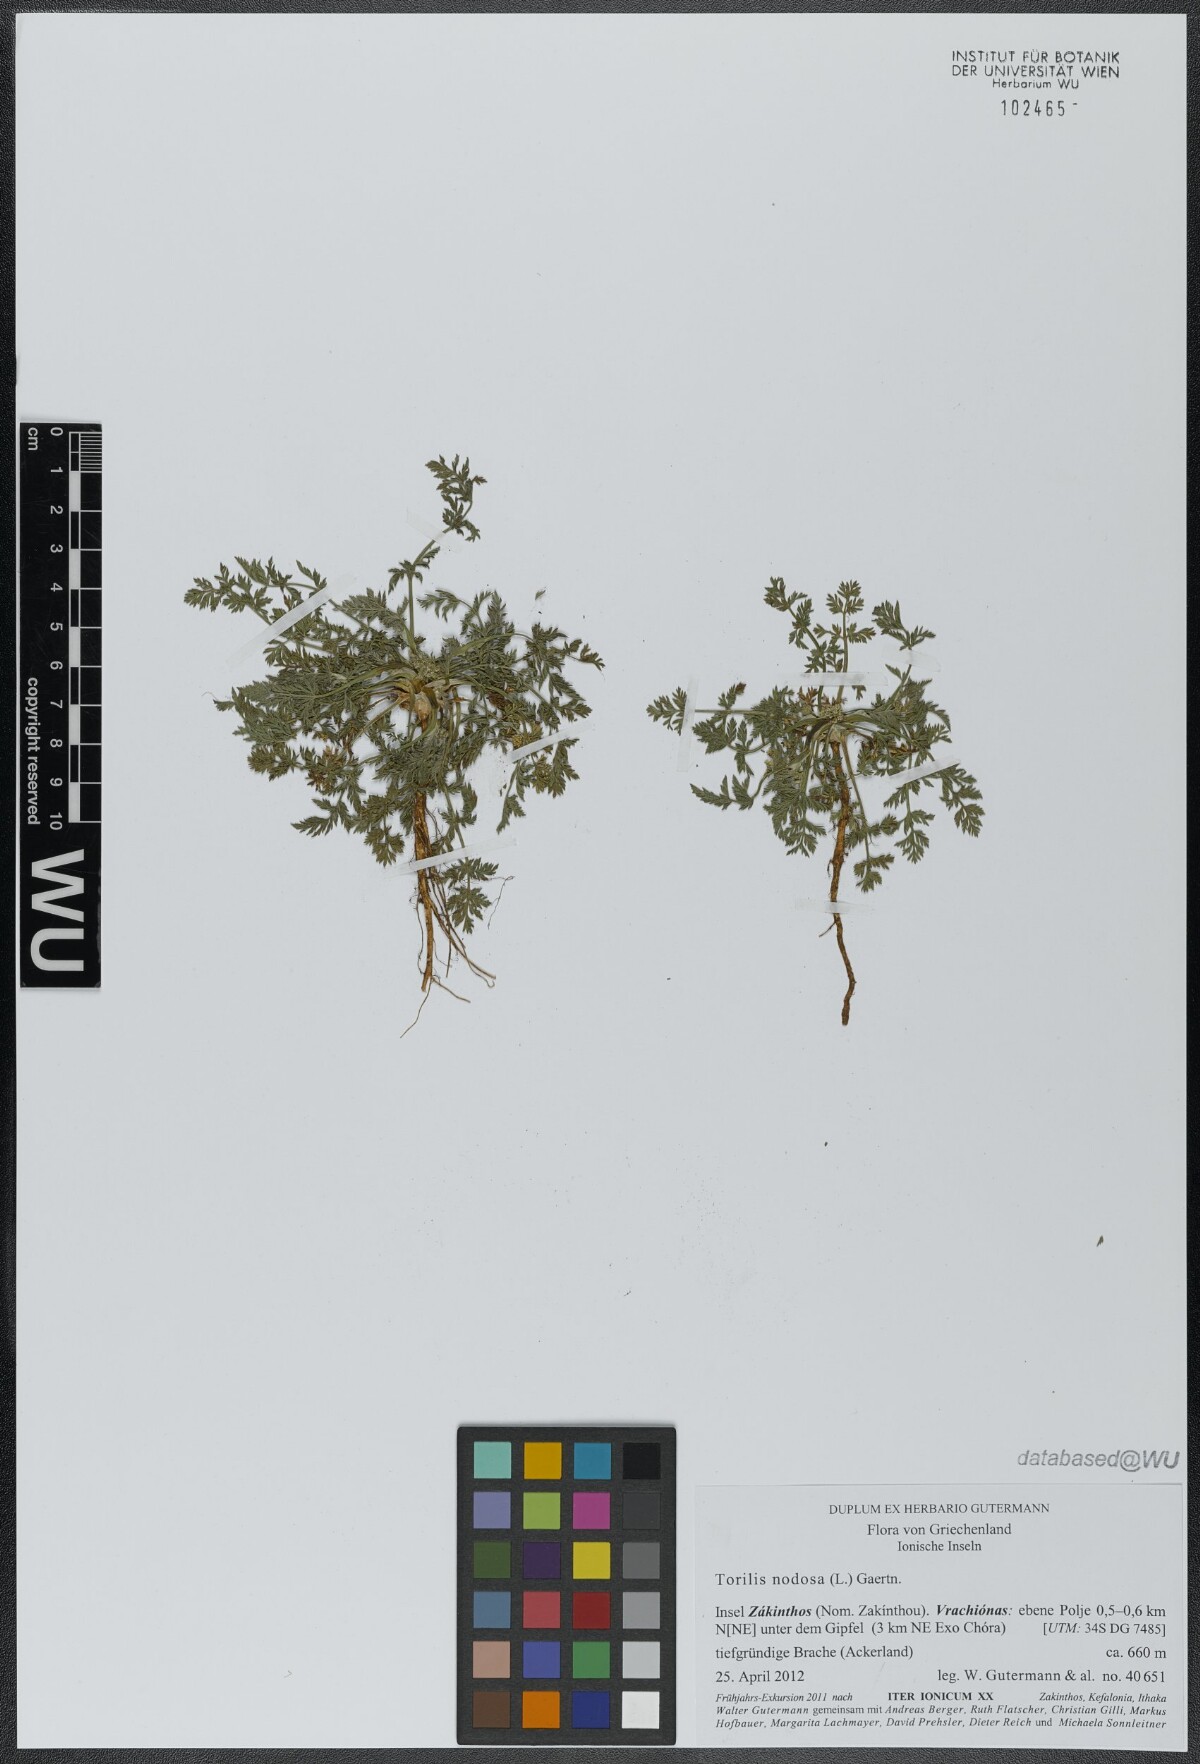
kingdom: Plantae
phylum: Tracheophyta
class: Magnoliopsida
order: Apiales
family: Apiaceae
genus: Torilis
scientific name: Torilis nodosa
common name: Knotted hedge-parsley
